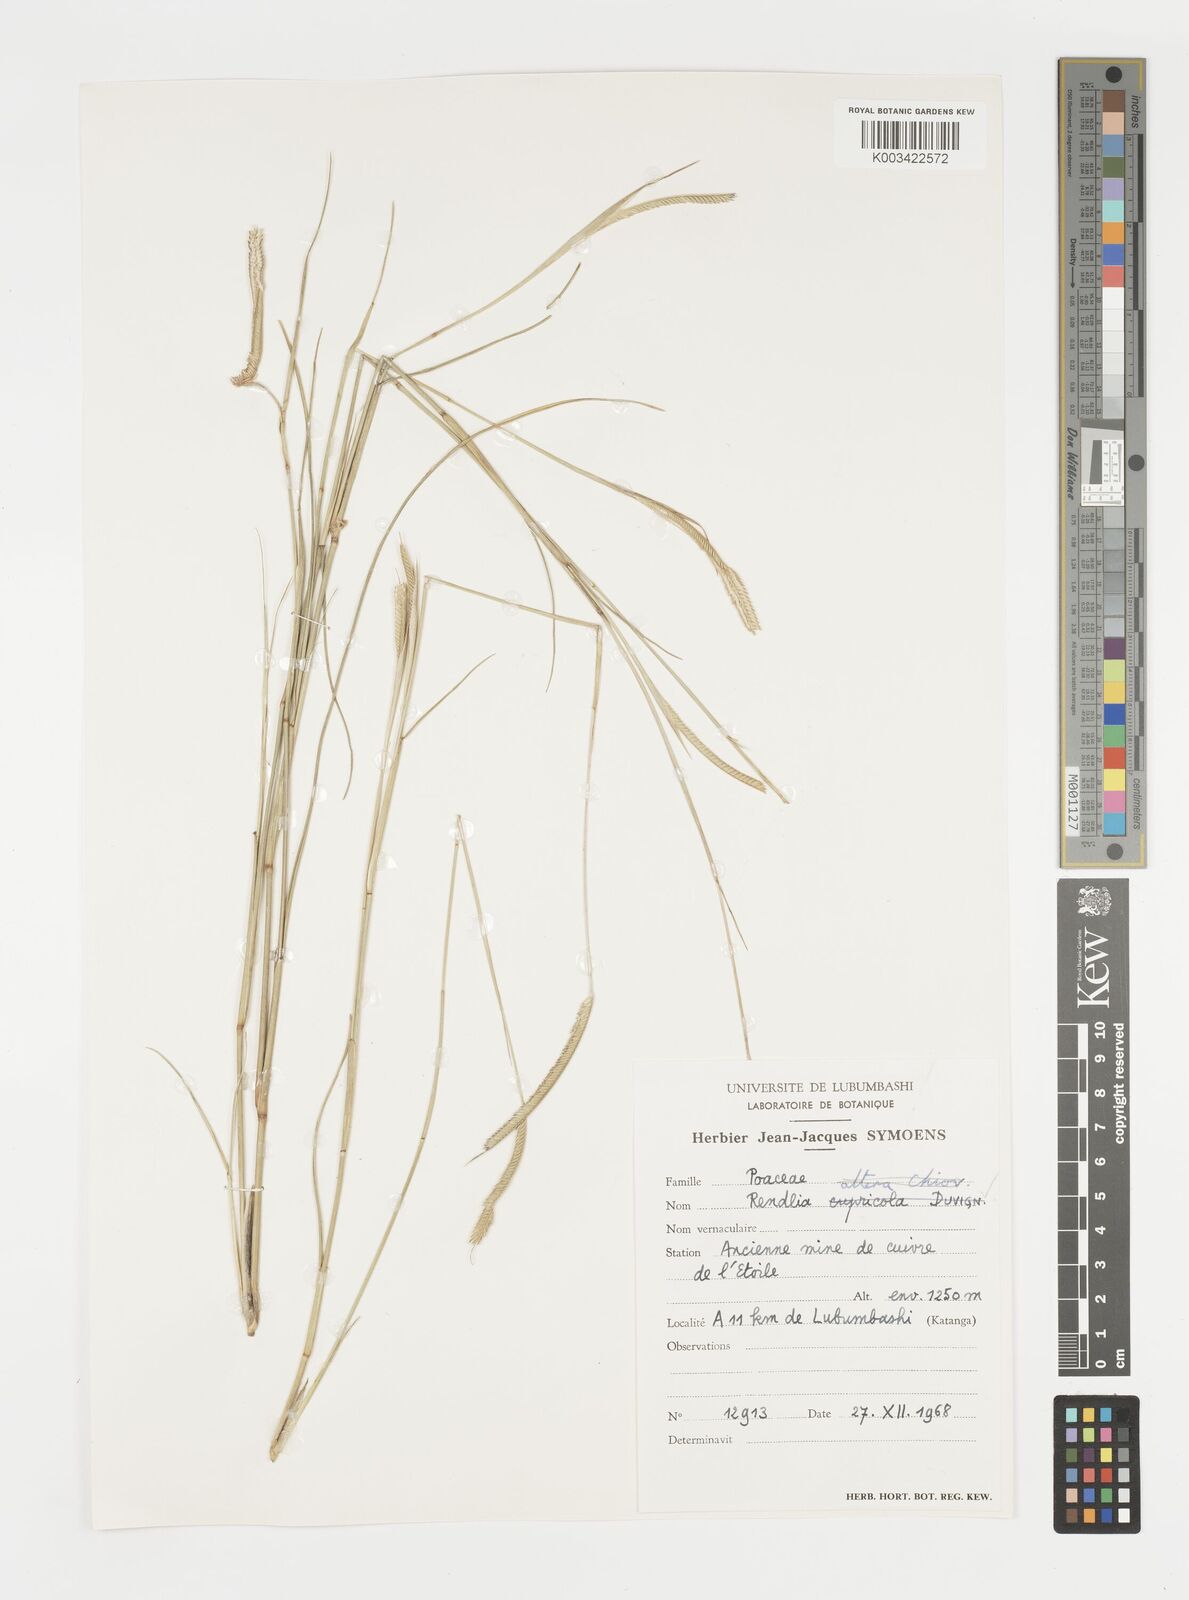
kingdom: Plantae
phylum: Tracheophyta
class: Liliopsida
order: Poales
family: Poaceae
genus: Microchloa
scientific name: Microchloa altera
